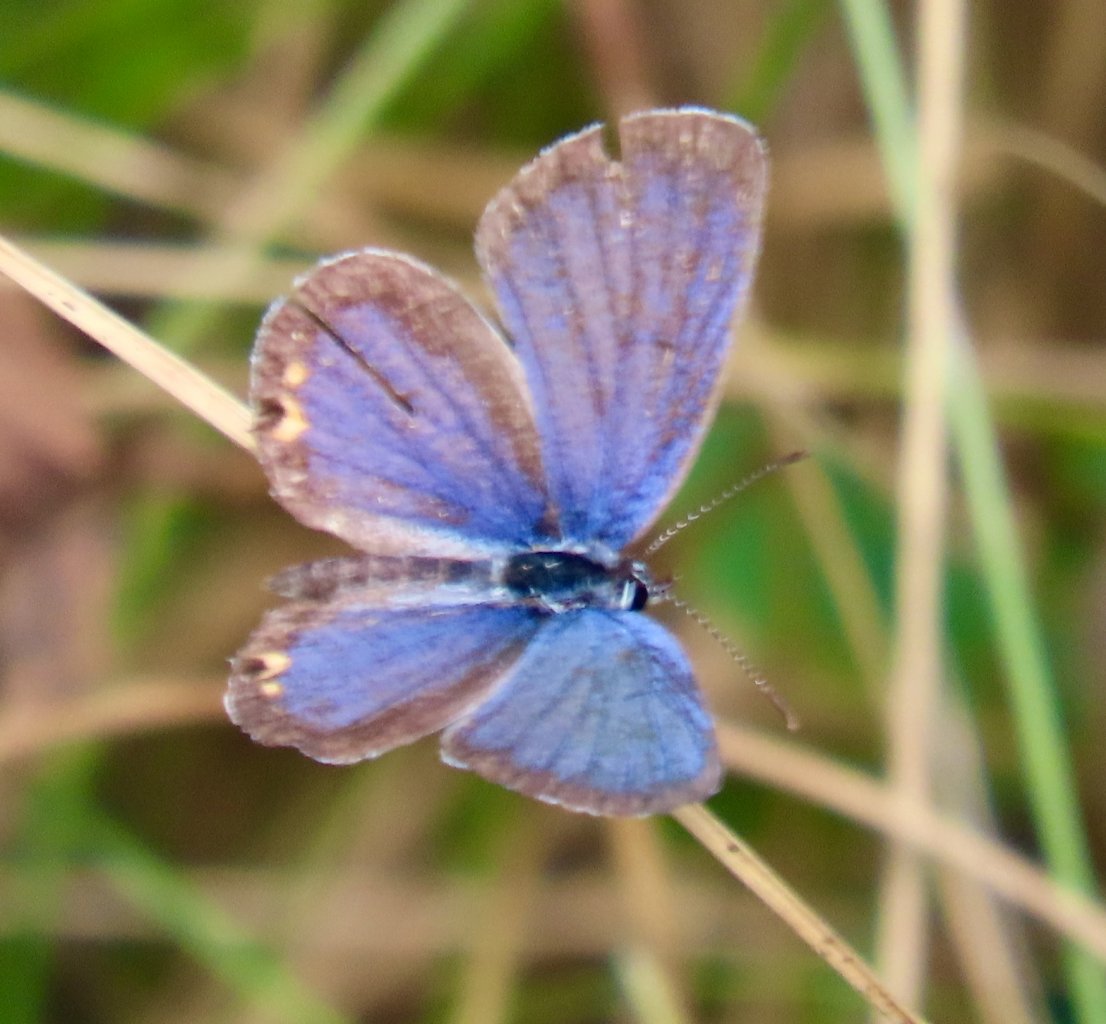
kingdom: Animalia
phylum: Arthropoda
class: Insecta
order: Lepidoptera
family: Lycaenidae
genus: Elkalyce
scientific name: Elkalyce comyntas
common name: Eastern Tailed-Blue
